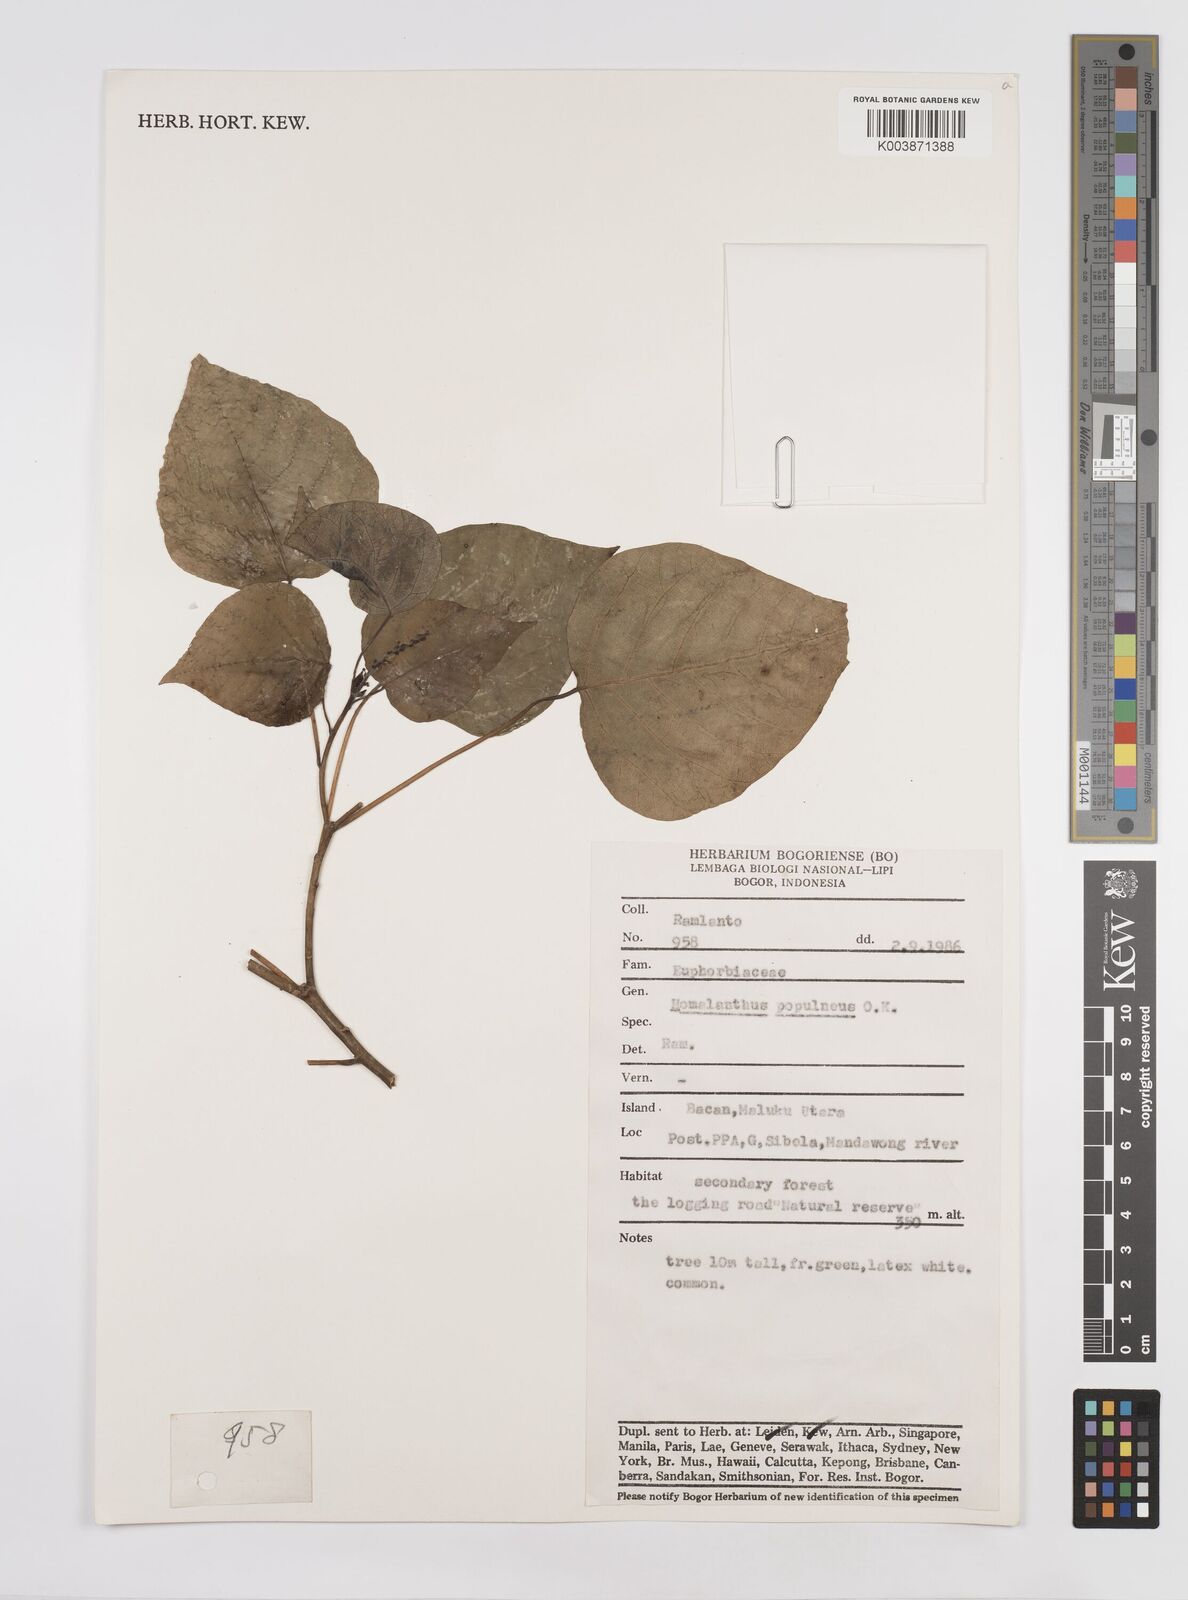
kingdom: Plantae
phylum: Tracheophyta
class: Magnoliopsida
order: Malpighiales
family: Euphorbiaceae
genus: Homalanthus
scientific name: Homalanthus populneus
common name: Spurge
